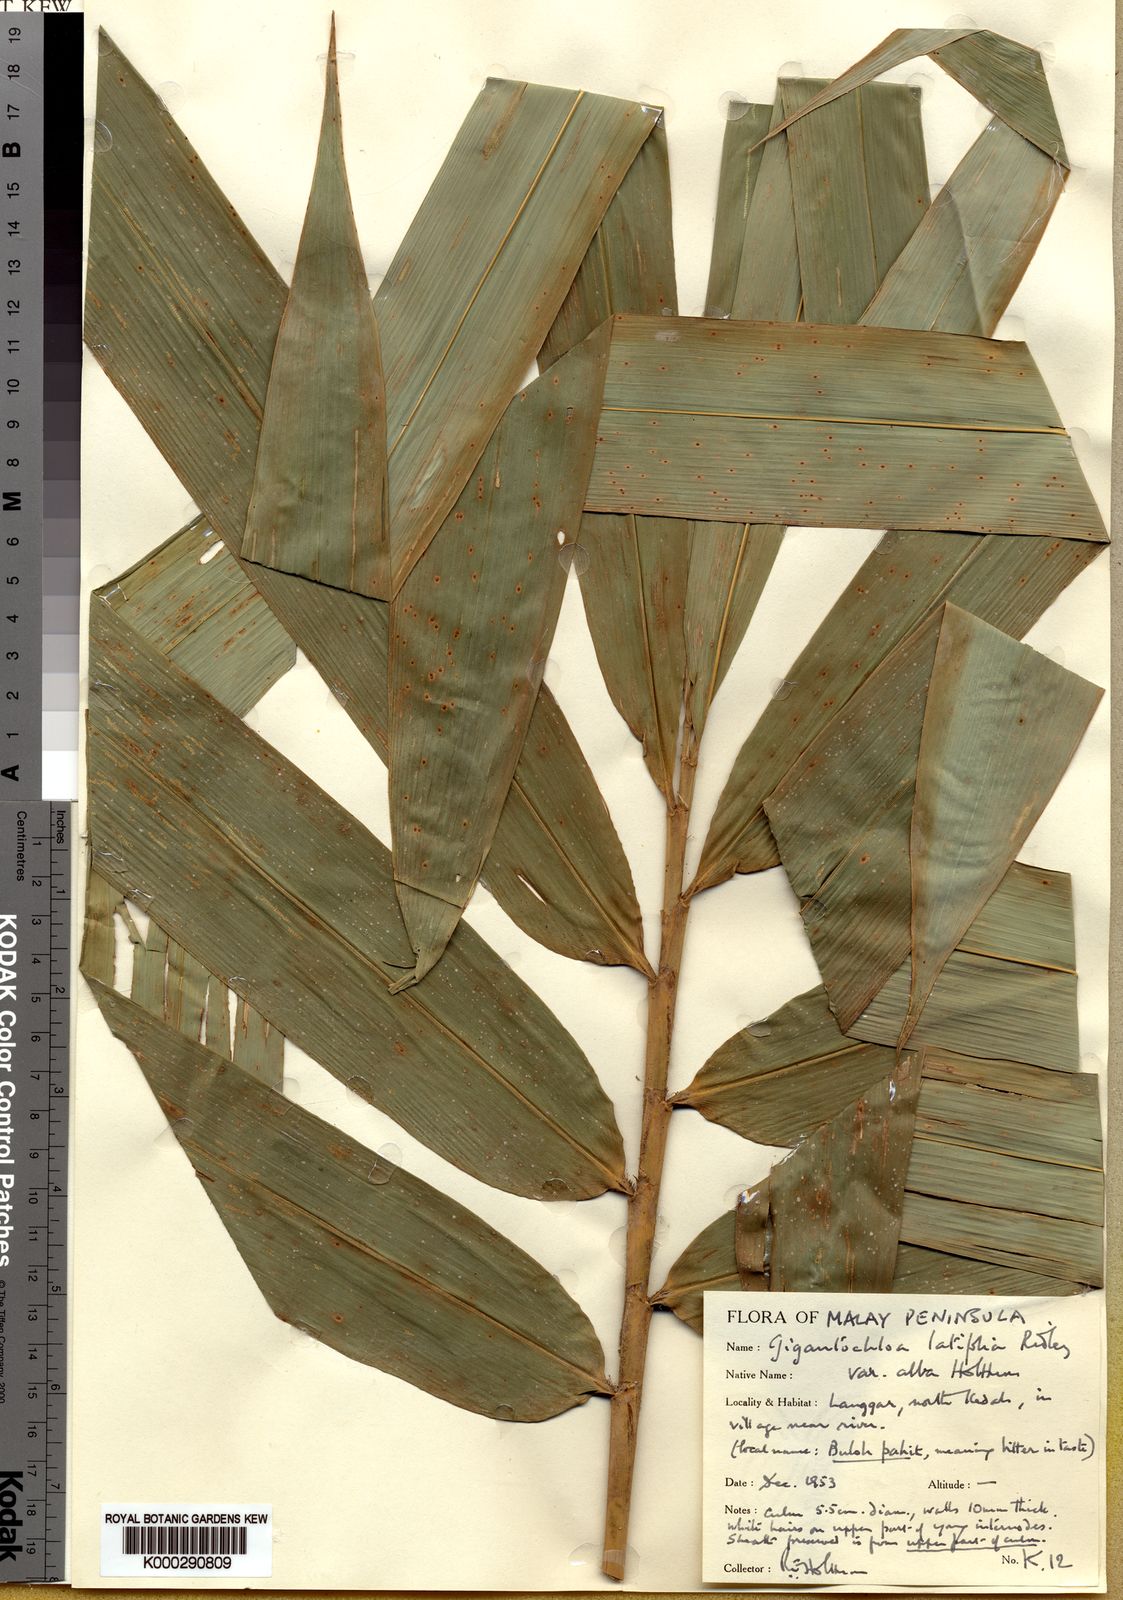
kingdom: Plantae
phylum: Tracheophyta
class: Liliopsida
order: Poales
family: Poaceae
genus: Gigantochloa
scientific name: Gigantochloa latifolia
